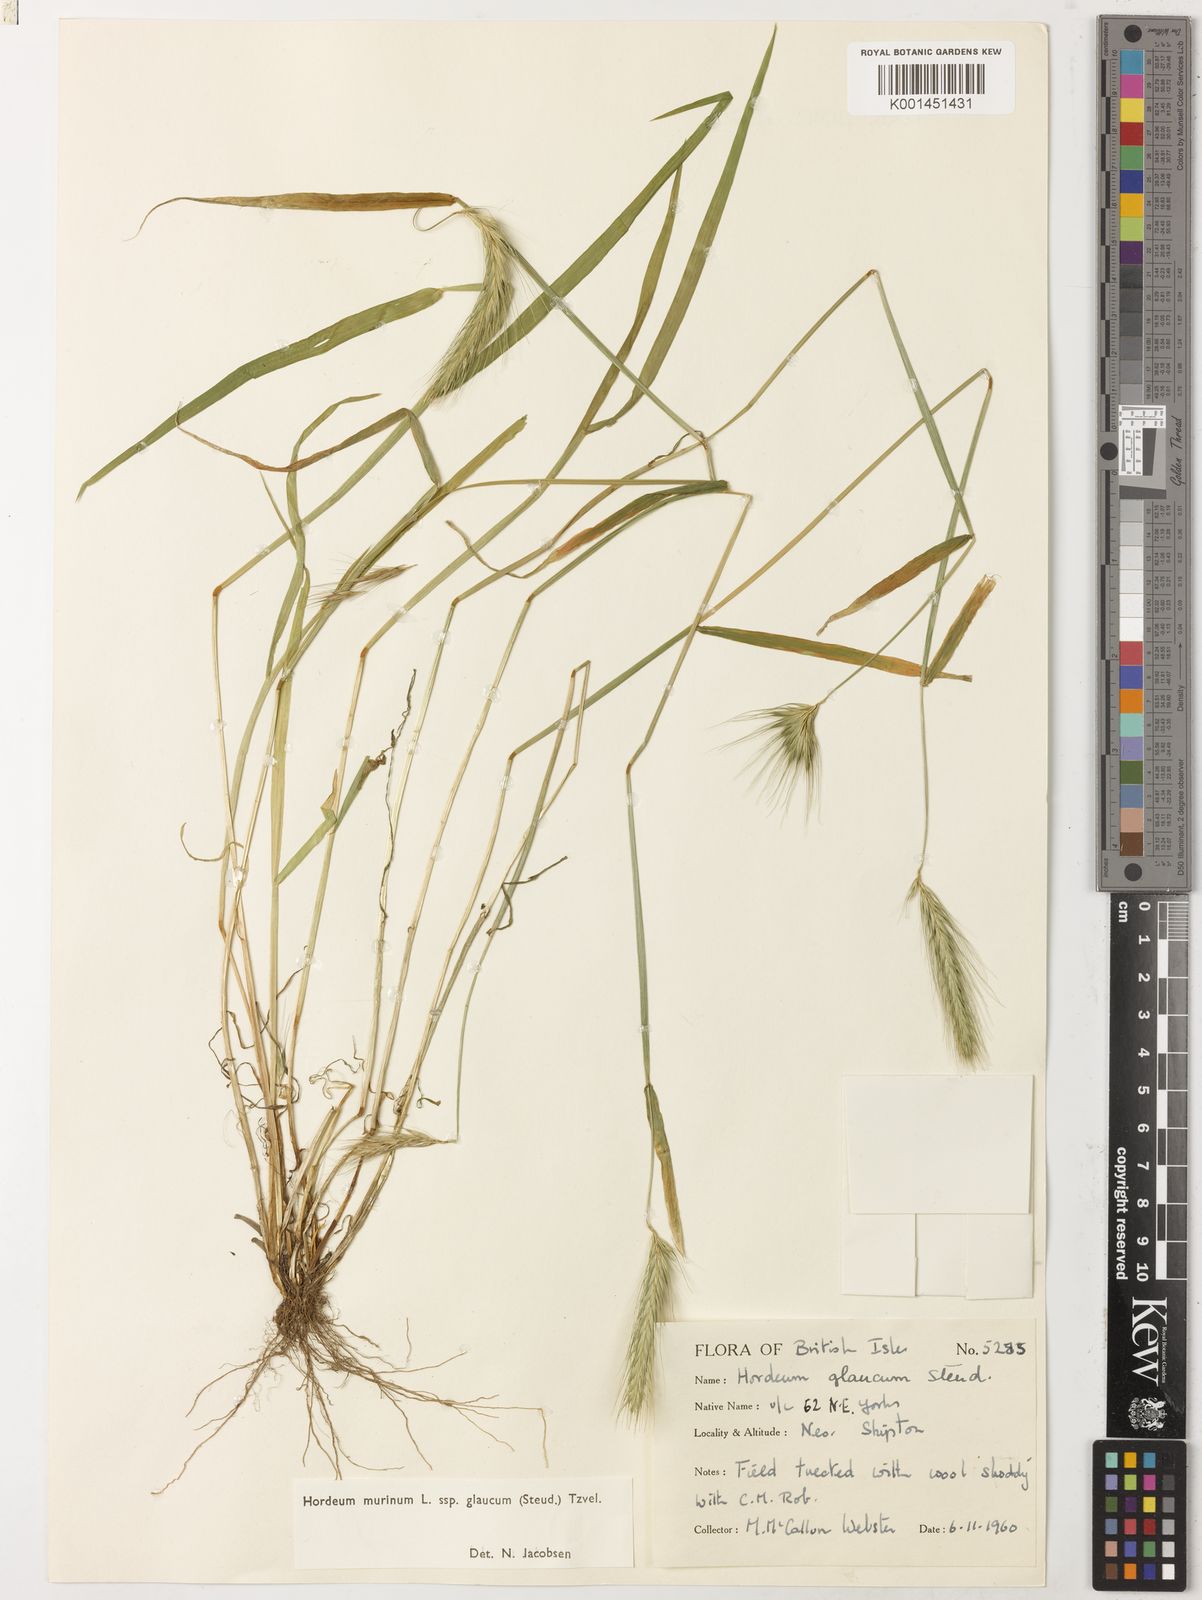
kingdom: Plantae
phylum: Tracheophyta
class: Liliopsida
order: Poales
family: Poaceae
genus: Hordeum
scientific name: Hordeum murinum
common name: Wall barley
